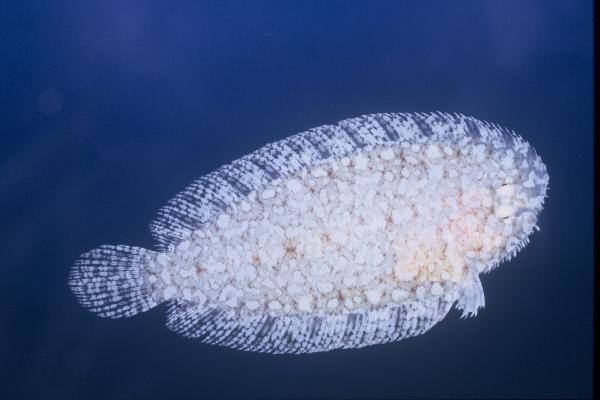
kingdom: Animalia
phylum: Chordata
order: Pleuronectiformes
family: Soleidae
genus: Aseraggodes
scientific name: Aseraggodes xenicus
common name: Dwarf sole
